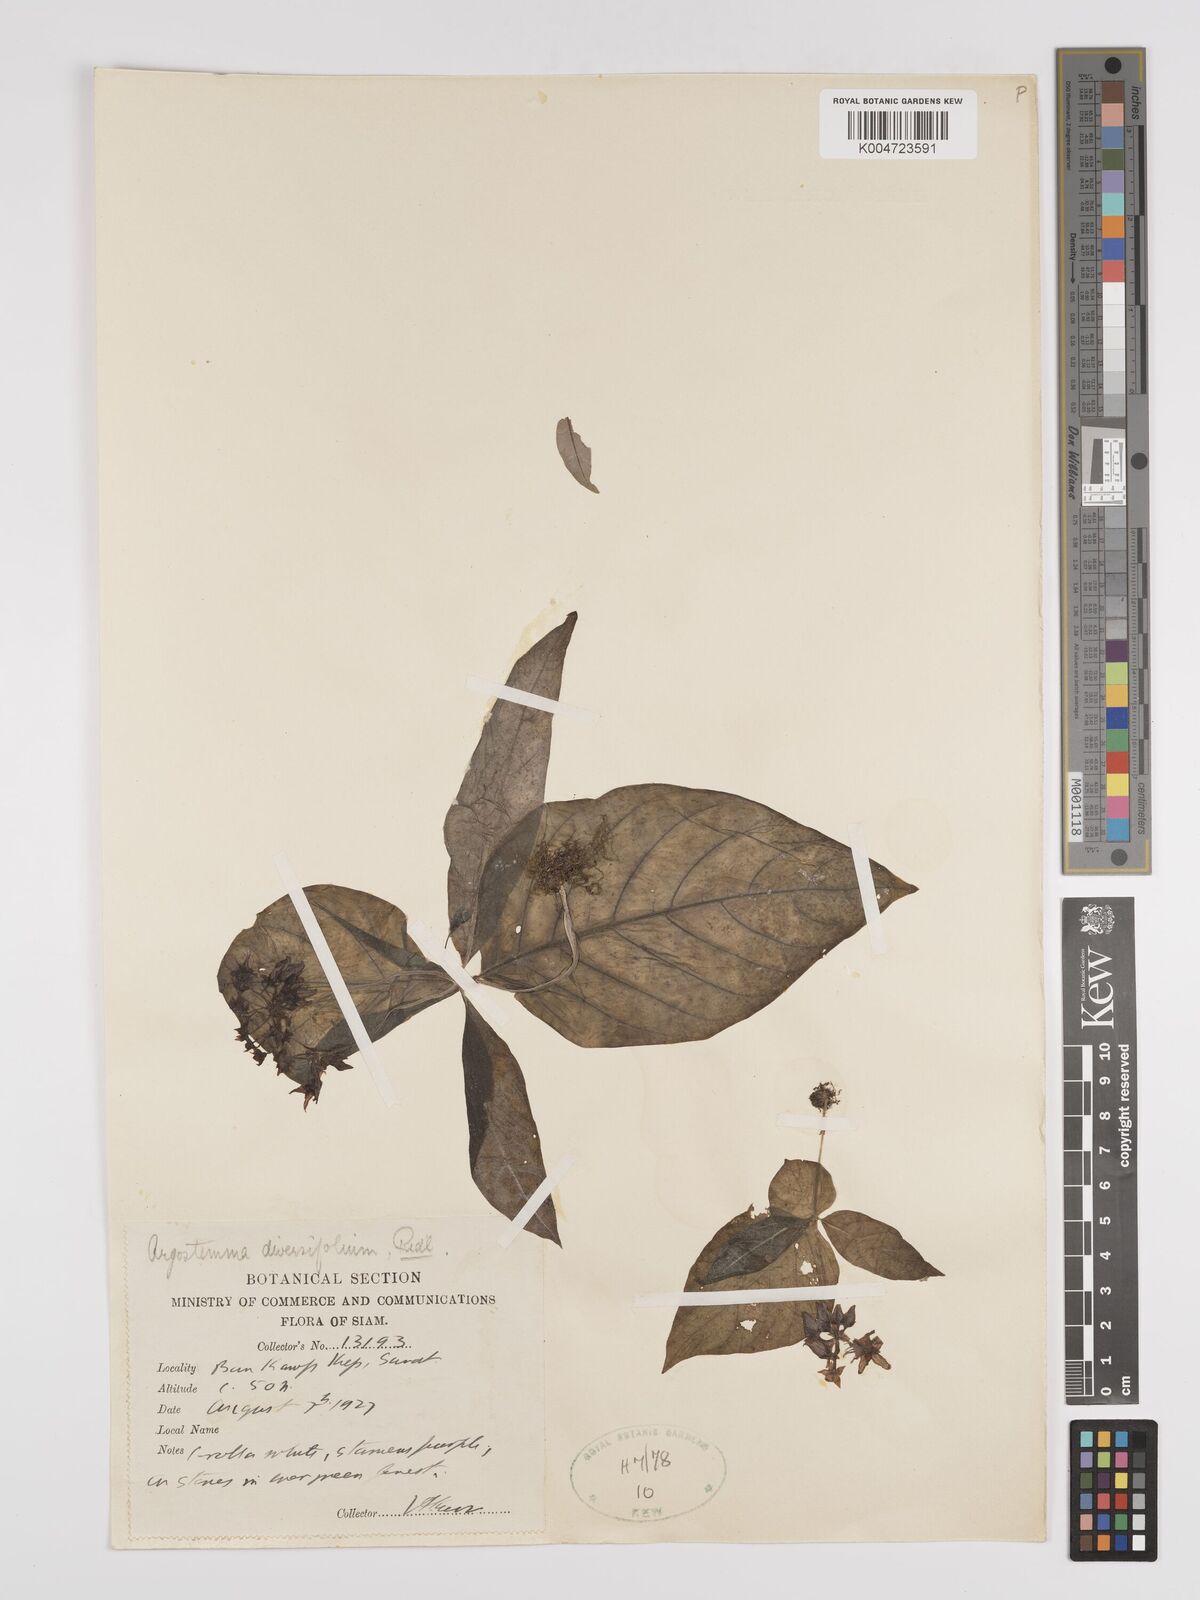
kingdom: Plantae
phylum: Tracheophyta
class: Magnoliopsida
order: Gentianales
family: Rubiaceae
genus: Argostemma
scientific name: Argostemma diversifolium
